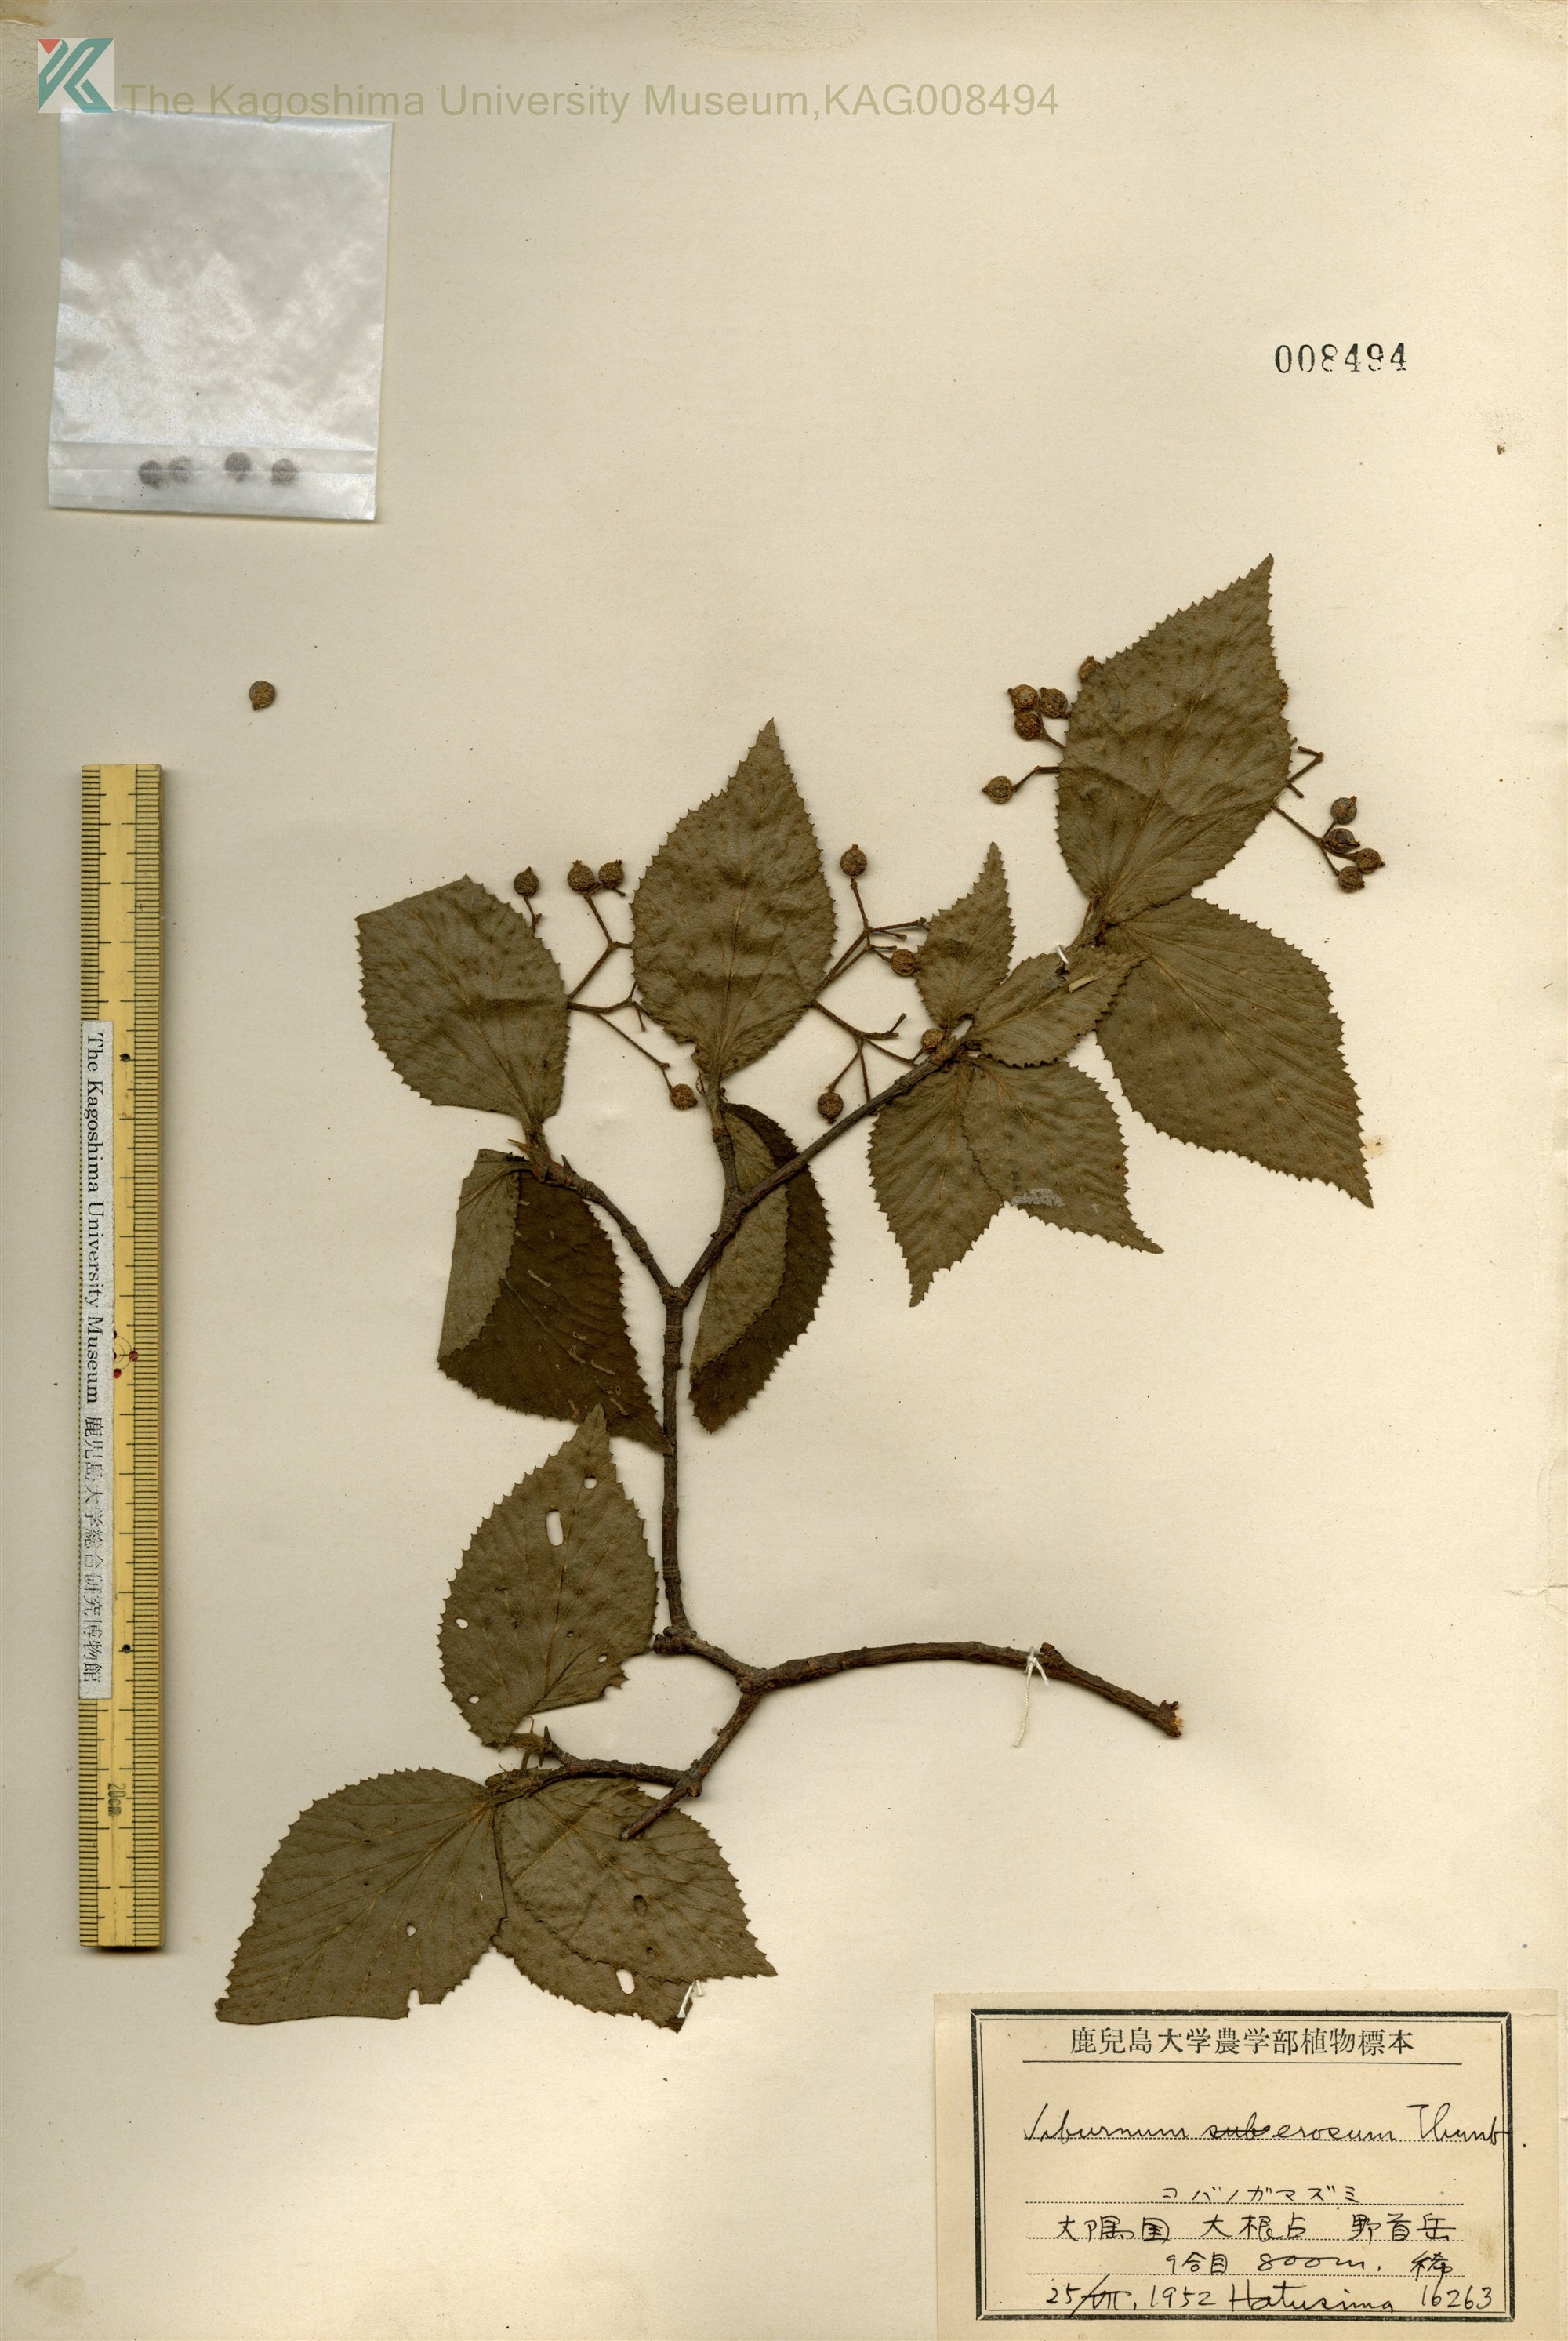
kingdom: Plantae
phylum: Tracheophyta
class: Magnoliopsida
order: Dipsacales
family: Viburnaceae
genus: Viburnum
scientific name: Viburnum erosum
